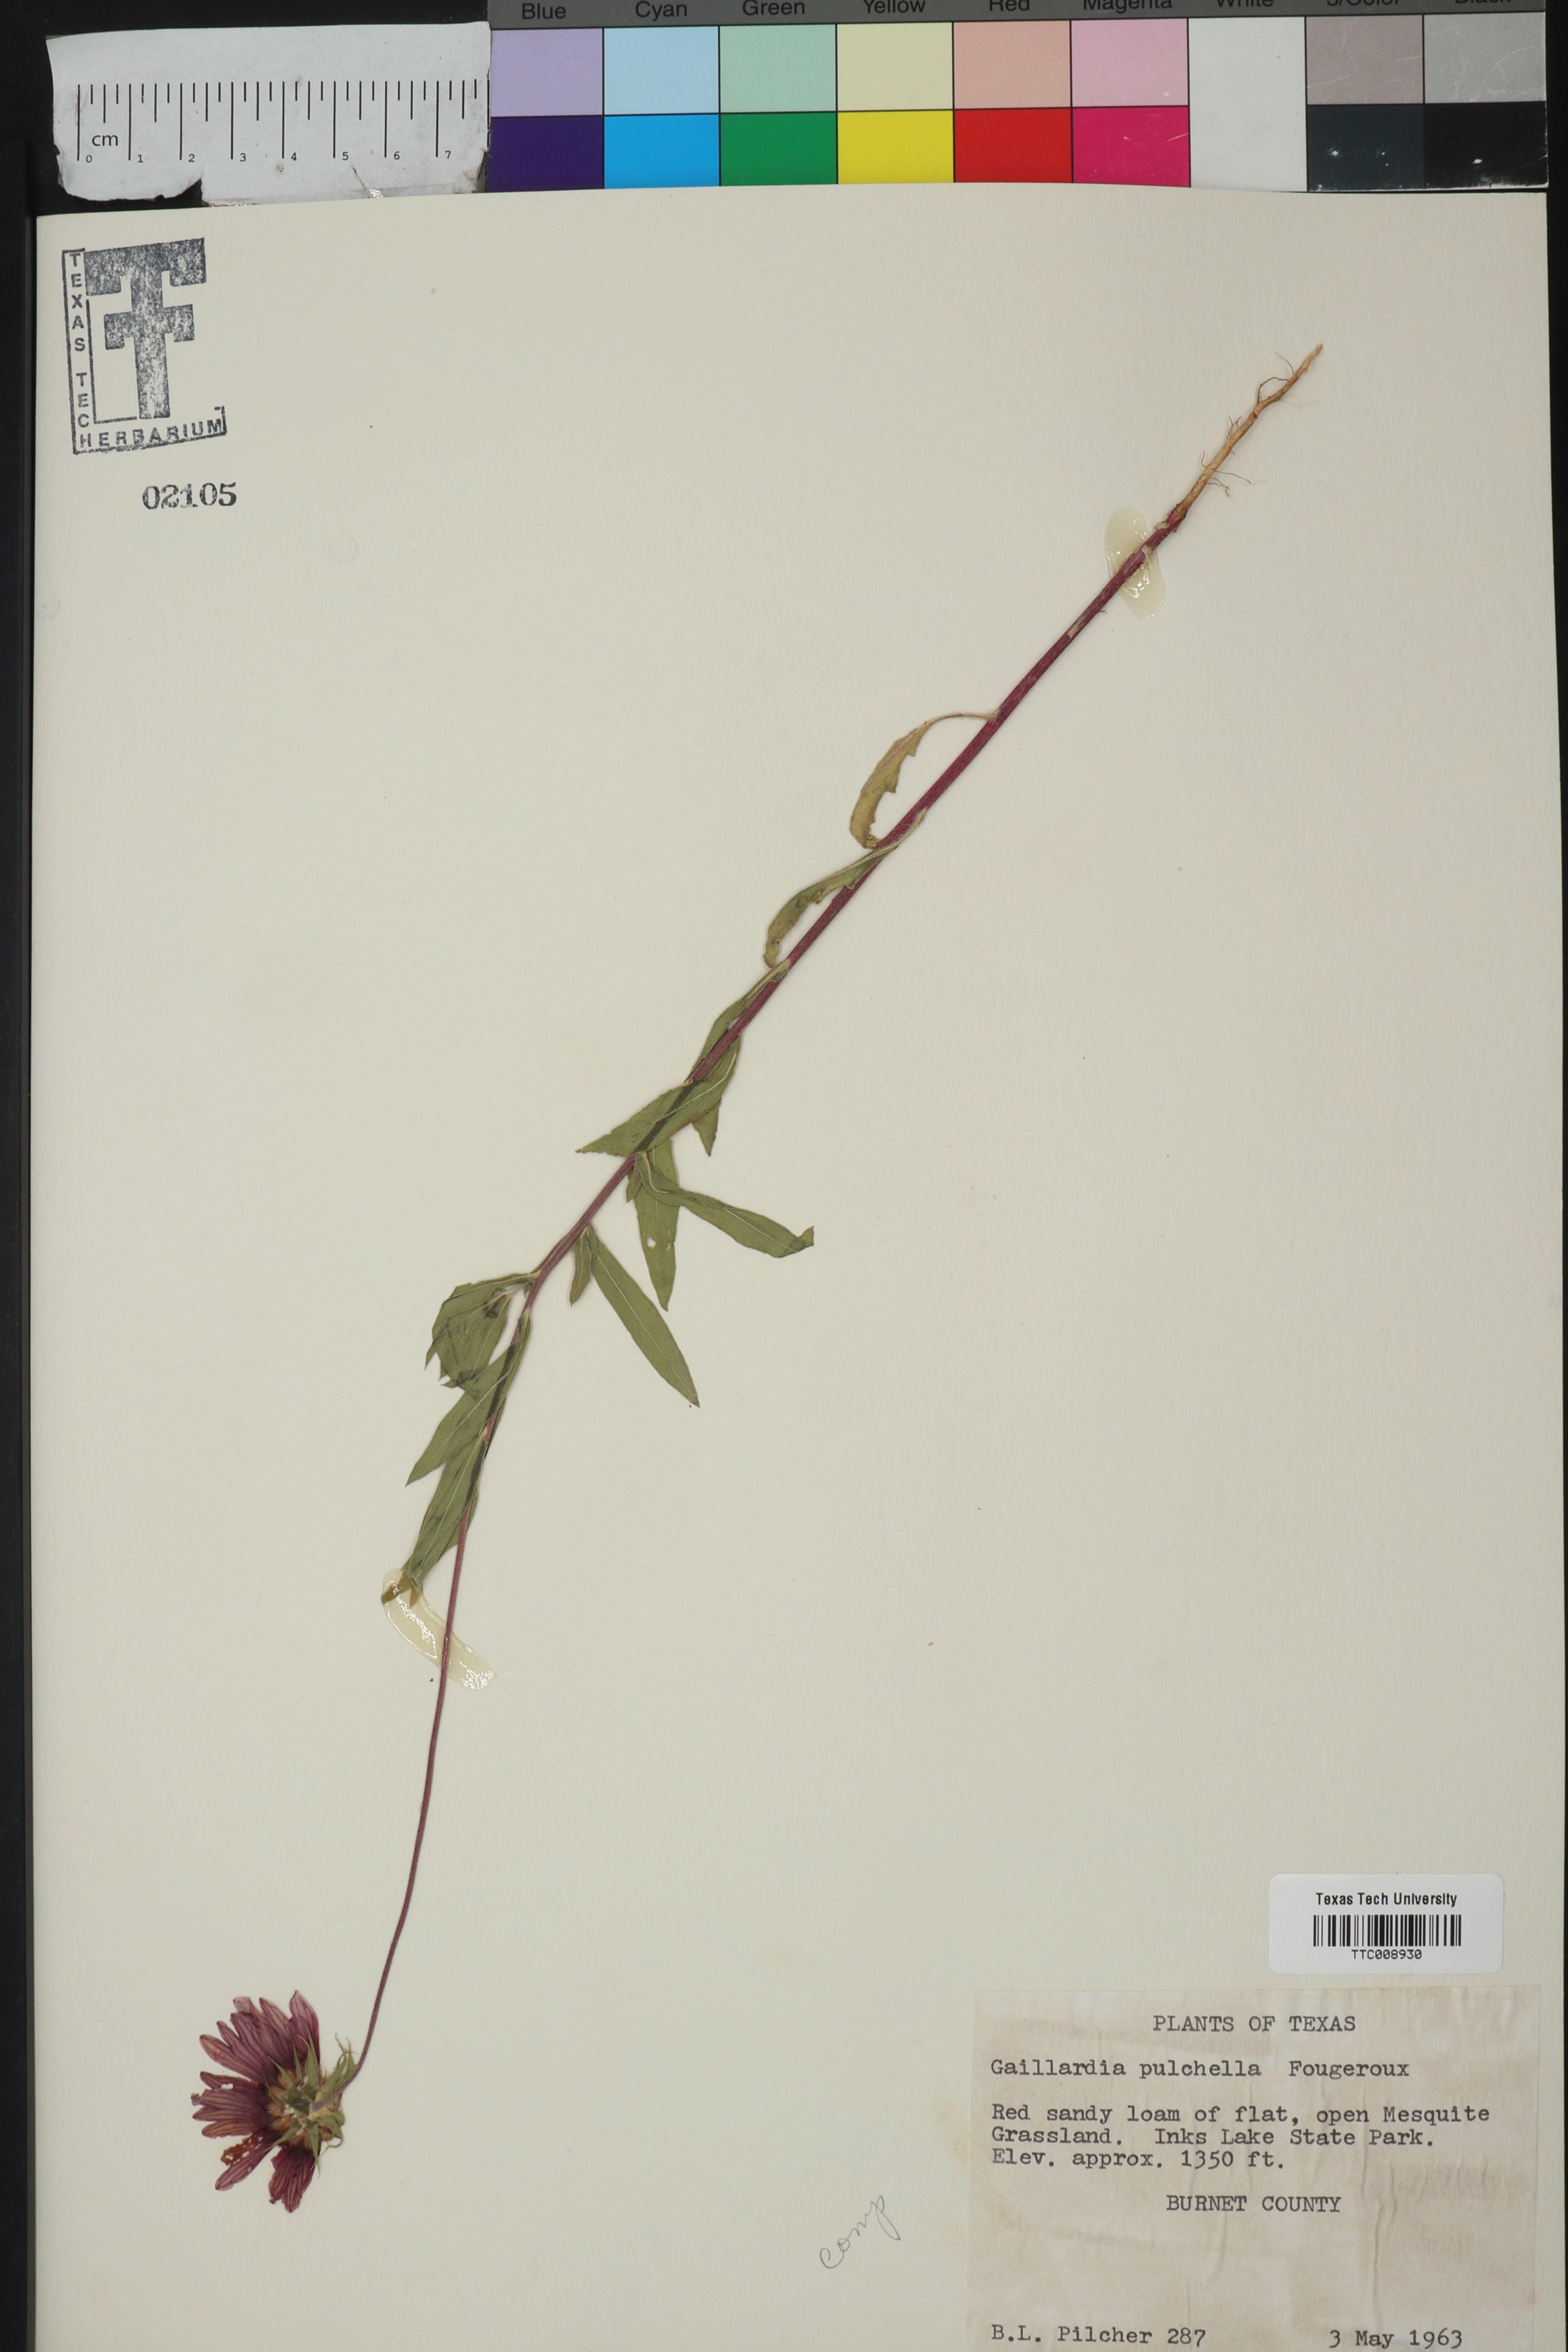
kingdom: Plantae
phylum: Tracheophyta
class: Magnoliopsida
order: Asterales
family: Asteraceae
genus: Gaillardia
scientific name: Gaillardia pulchella
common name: Firewheel
